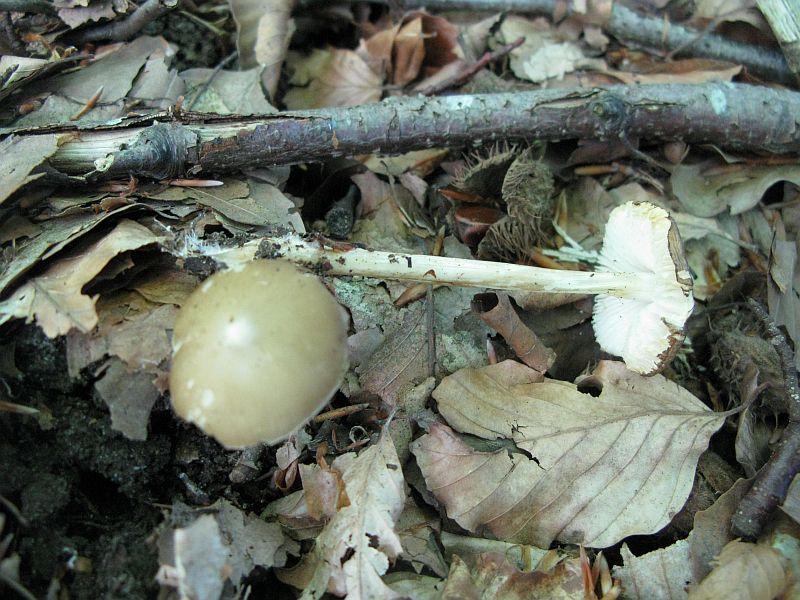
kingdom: Fungi
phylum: Basidiomycota
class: Agaricomycetes
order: Agaricales
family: Porotheleaceae
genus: Hydropodia
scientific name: Hydropodia subalpina
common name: vår-fnugfod
